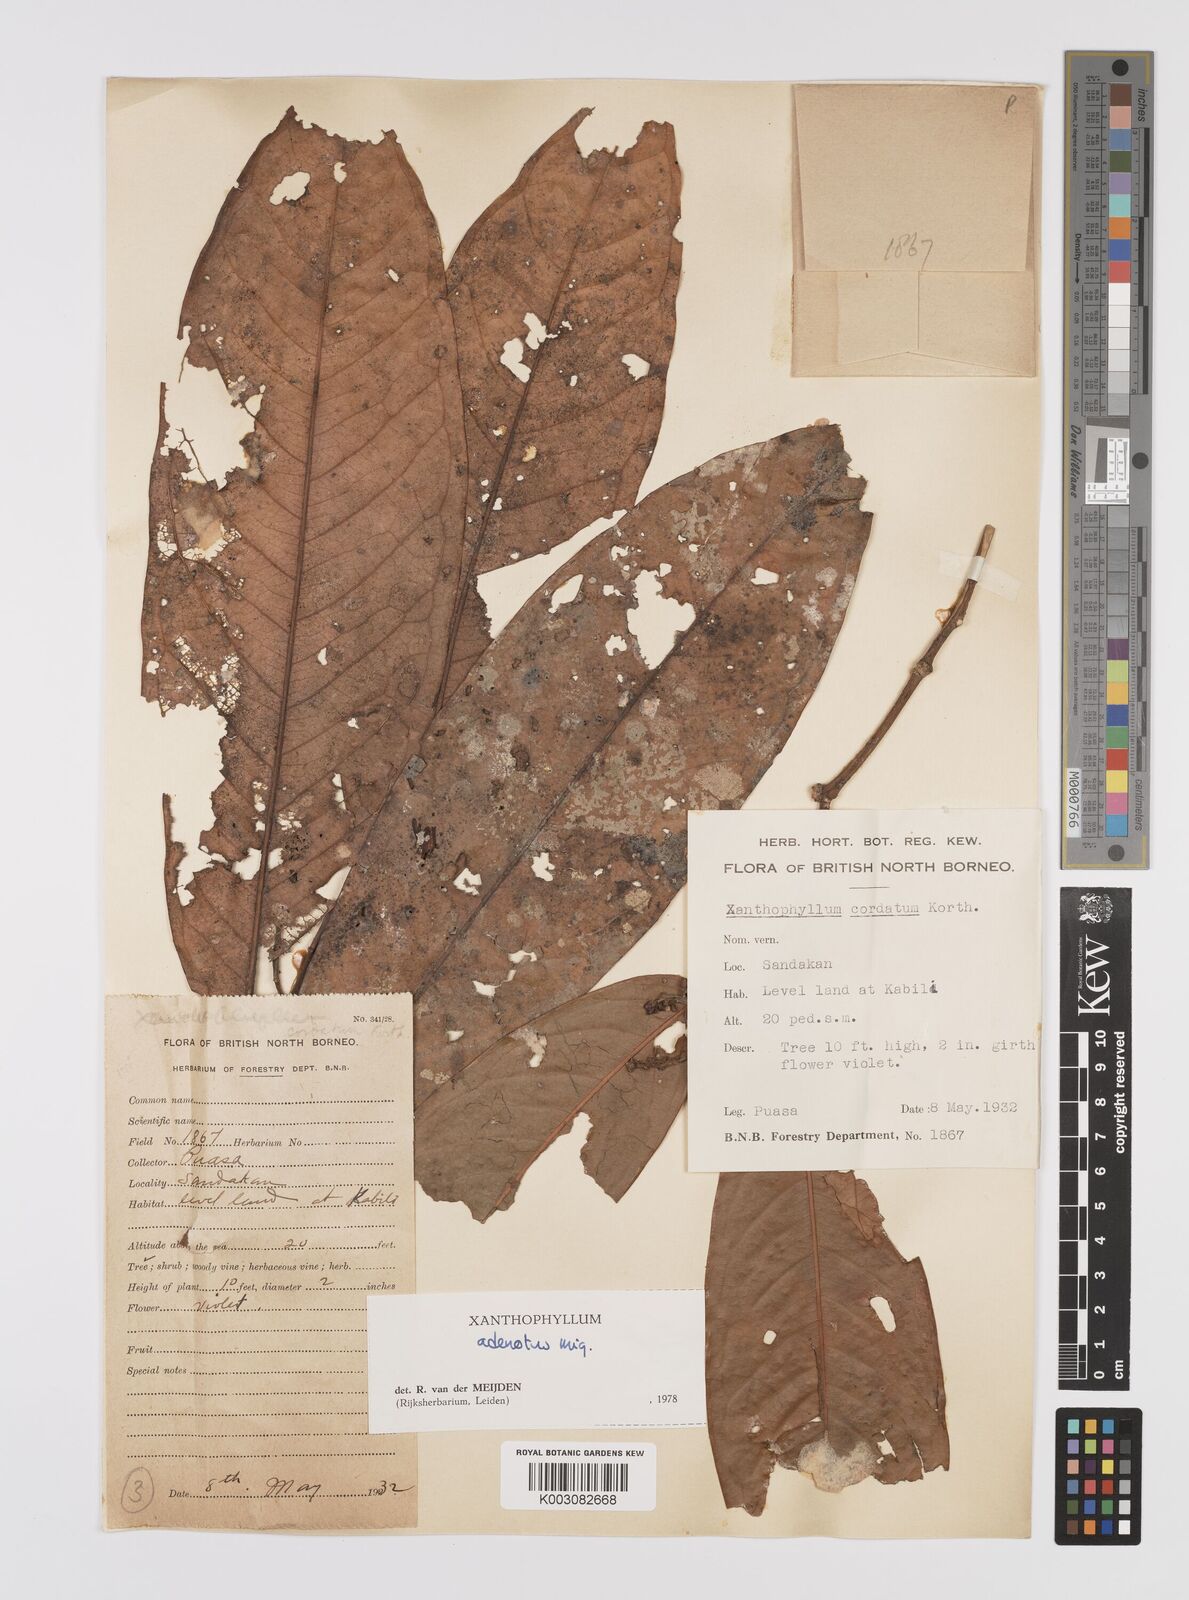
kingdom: Plantae
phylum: Tracheophyta
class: Magnoliopsida
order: Fabales
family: Polygalaceae
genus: Xanthophyllum
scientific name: Xanthophyllum adenotus
